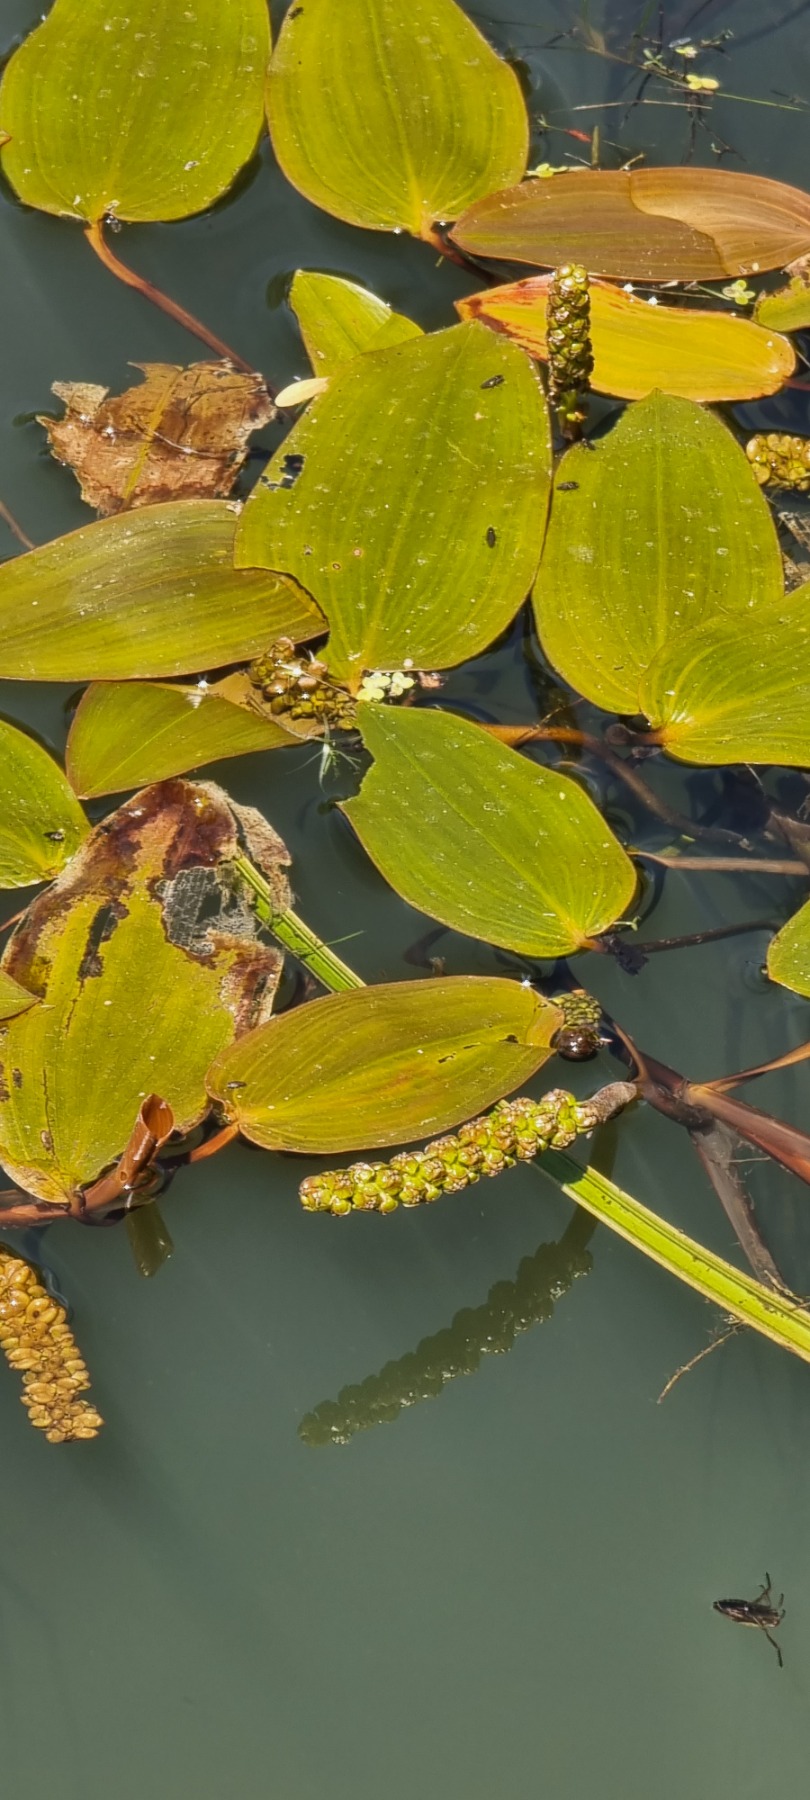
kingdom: Plantae
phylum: Tracheophyta
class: Liliopsida
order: Alismatales
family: Potamogetonaceae
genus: Potamogeton
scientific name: Potamogeton natans
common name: Svømmende vandaks
